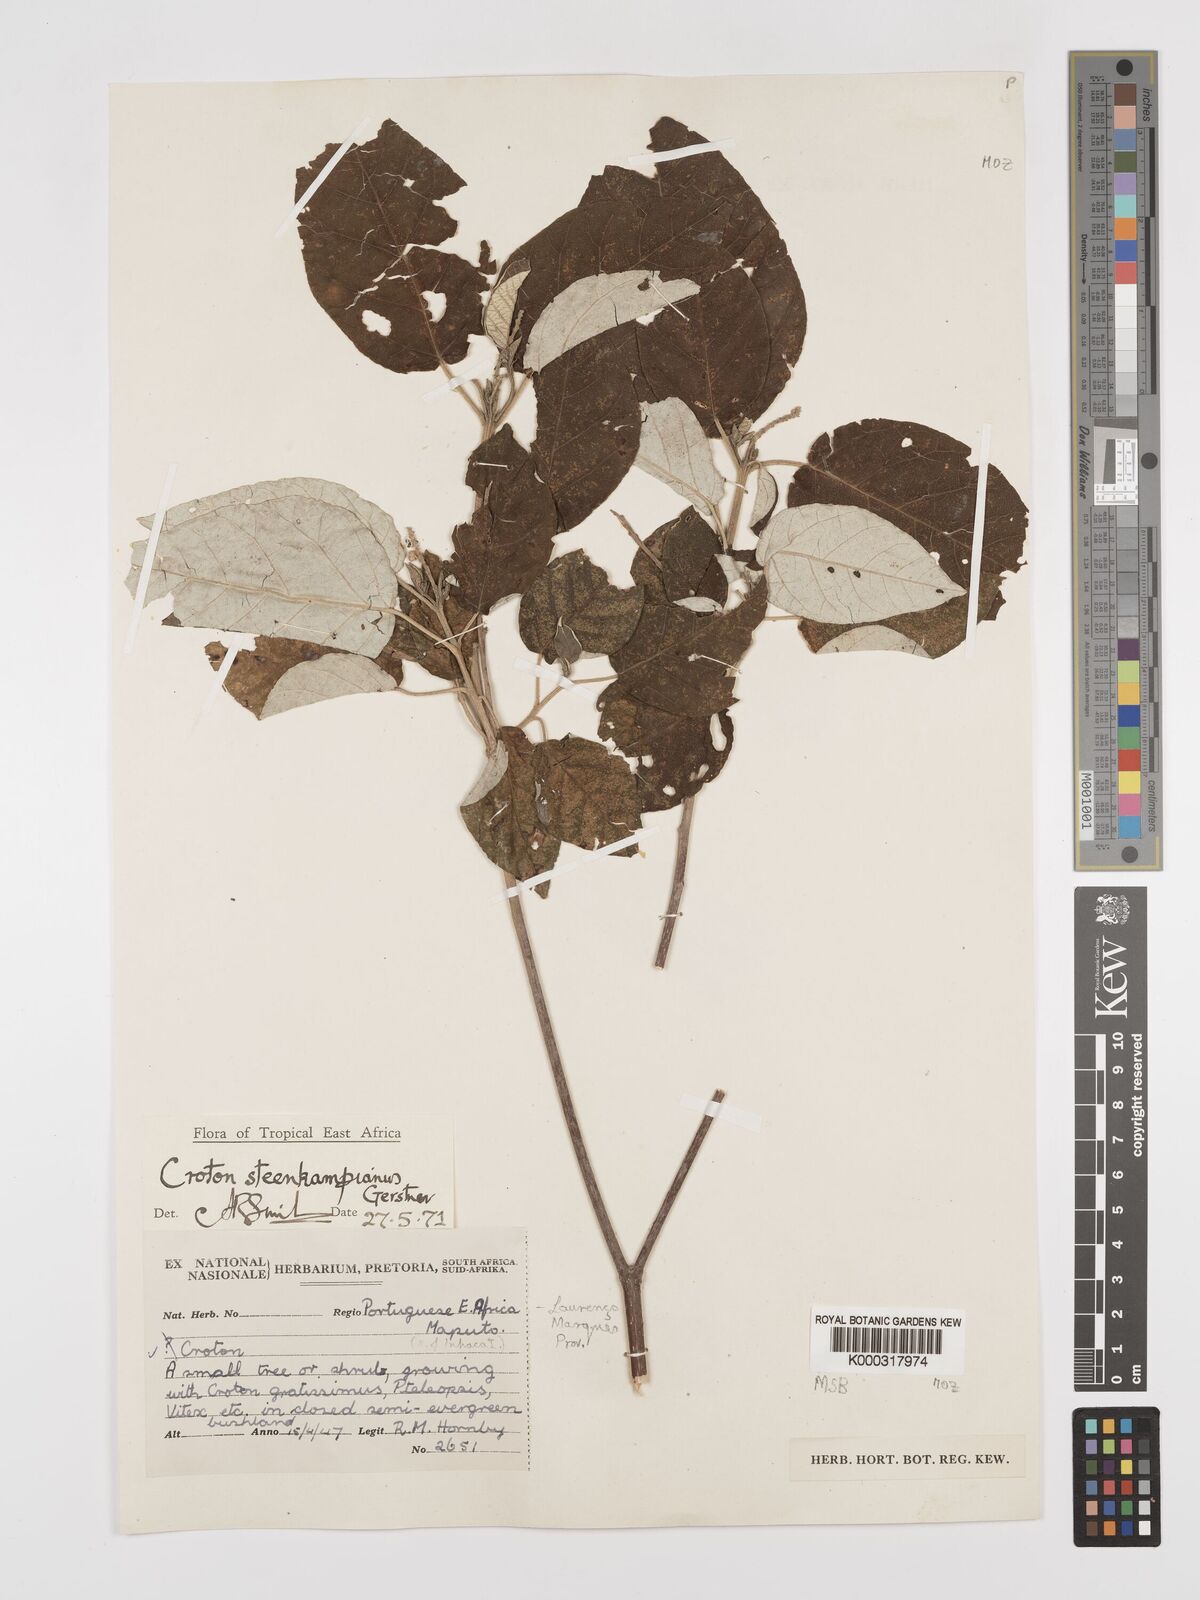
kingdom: Plantae
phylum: Tracheophyta
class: Magnoliopsida
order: Malpighiales
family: Euphorbiaceae
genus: Croton
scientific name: Croton gratissimus
